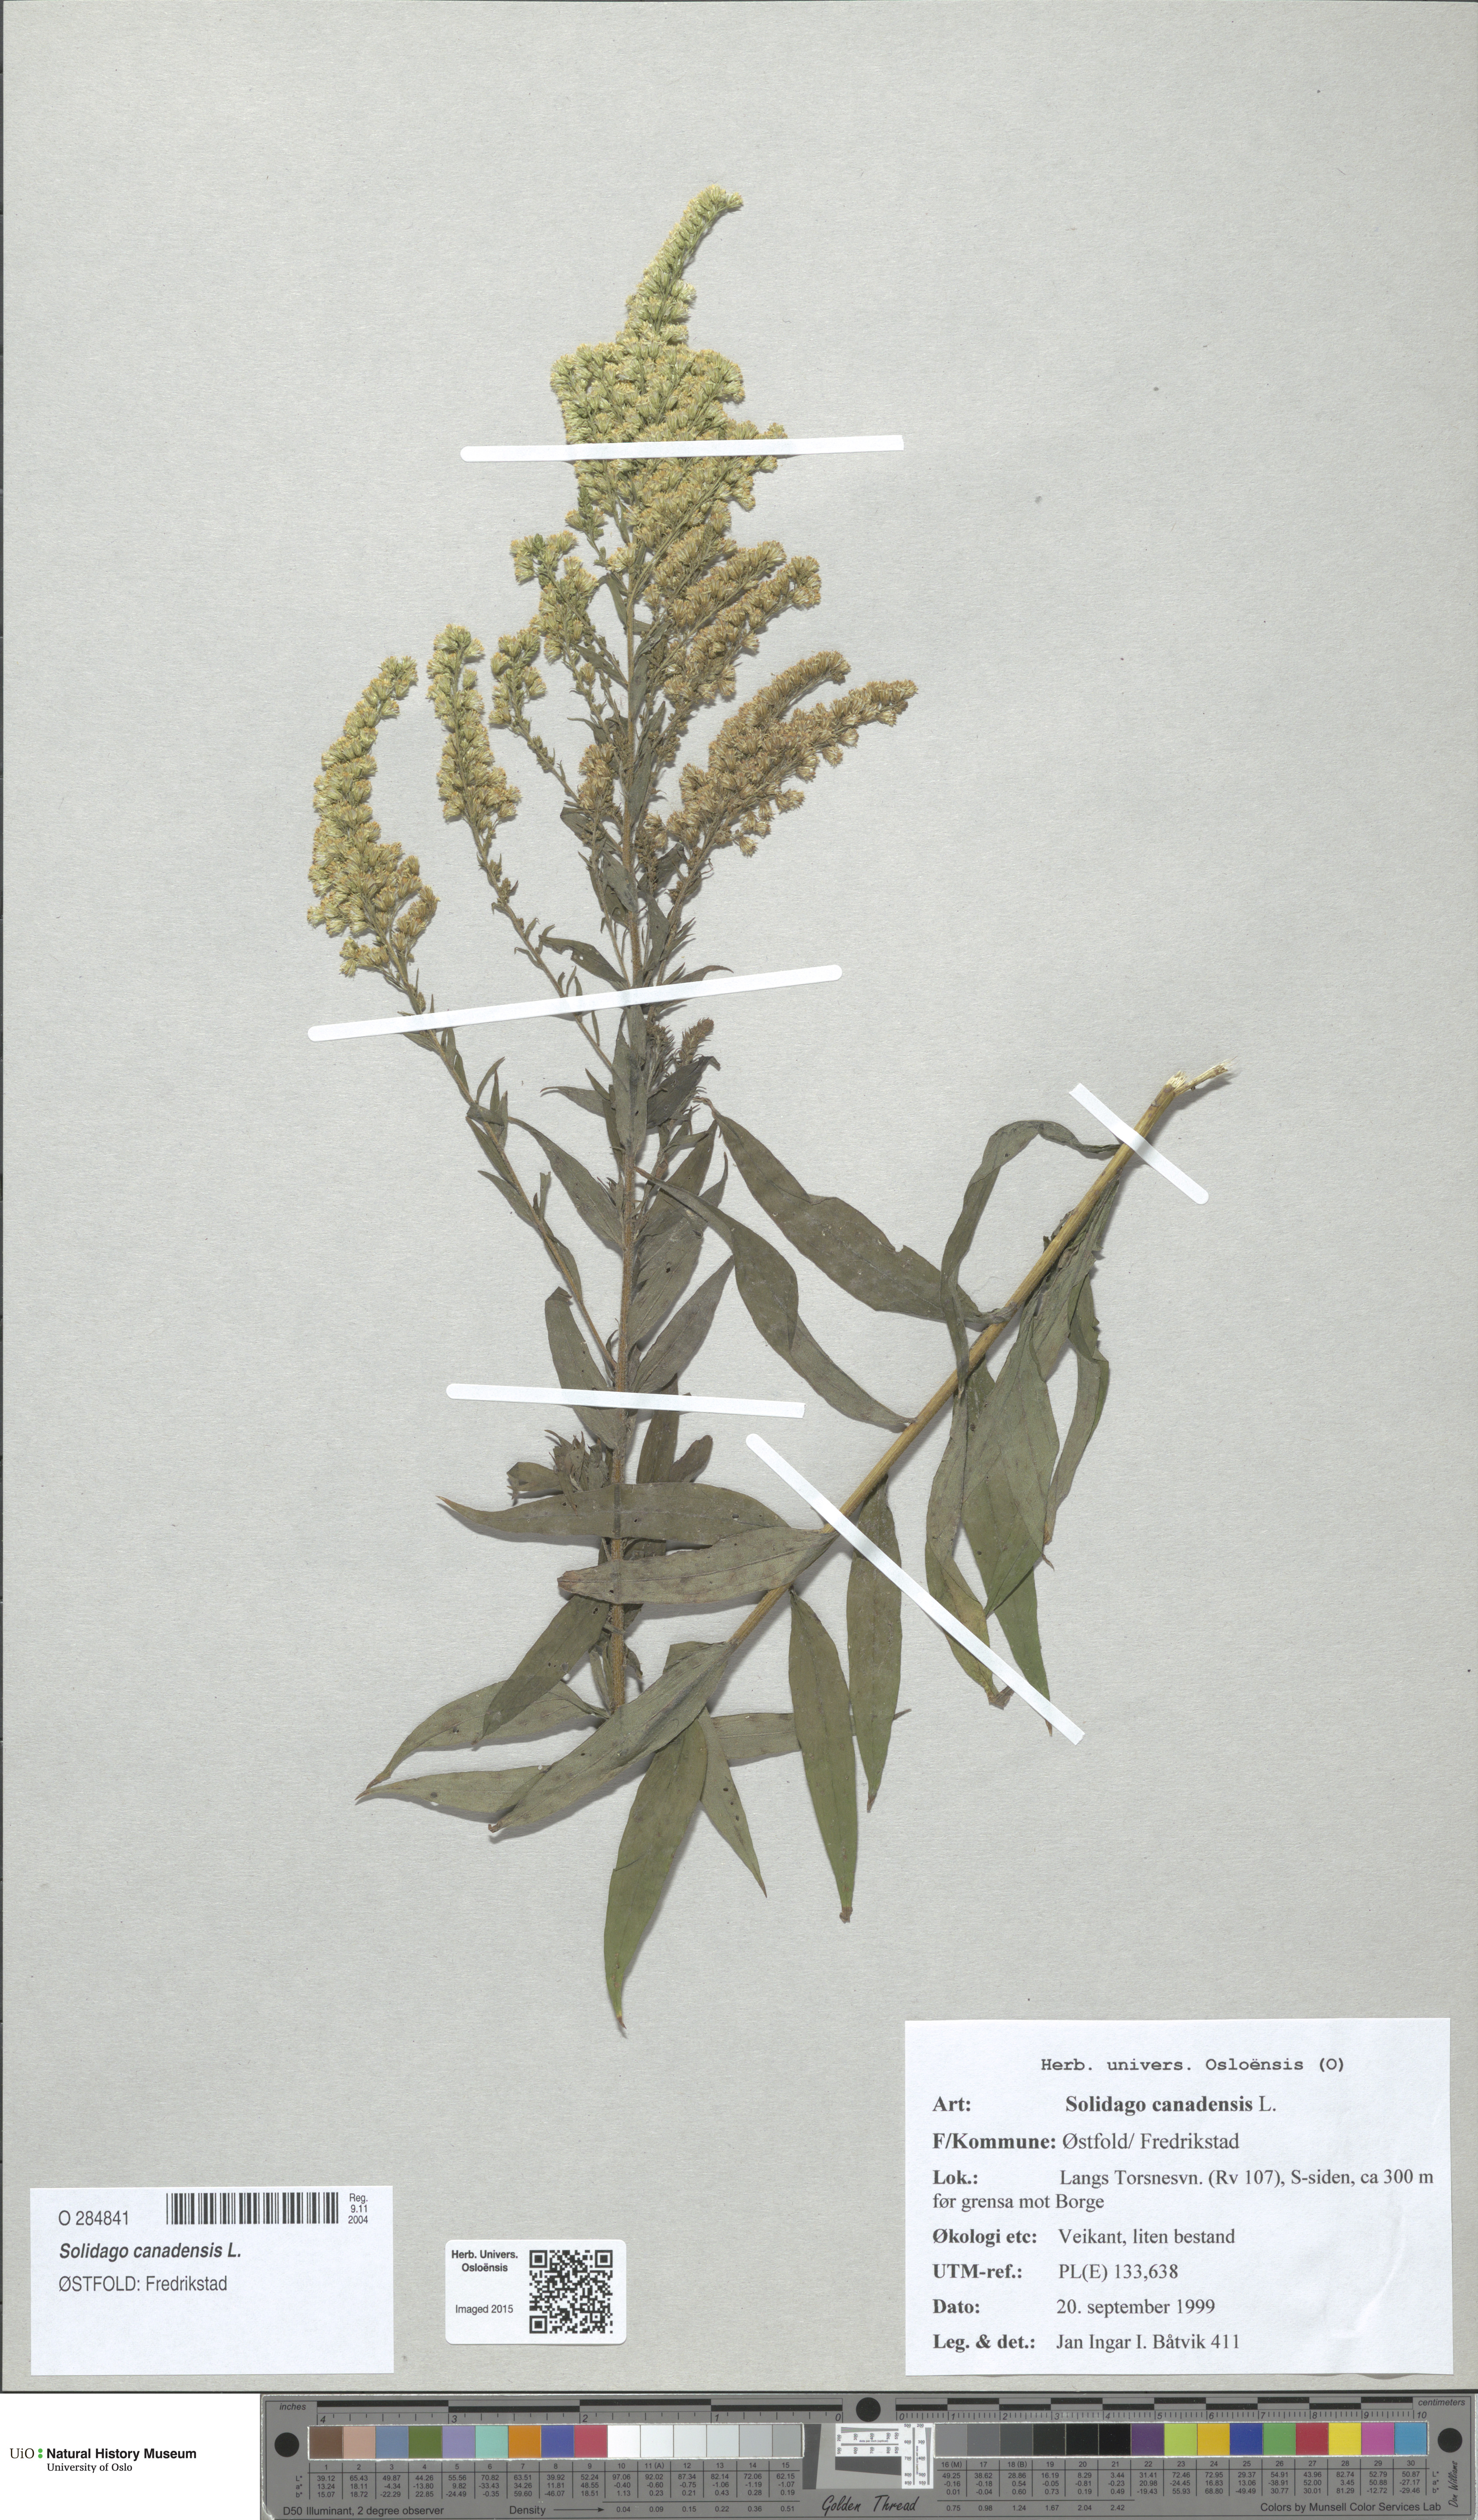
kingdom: Plantae
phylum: Tracheophyta
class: Magnoliopsida
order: Asterales
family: Asteraceae
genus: Solidago
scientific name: Solidago canadensis
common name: Canada goldenrod
